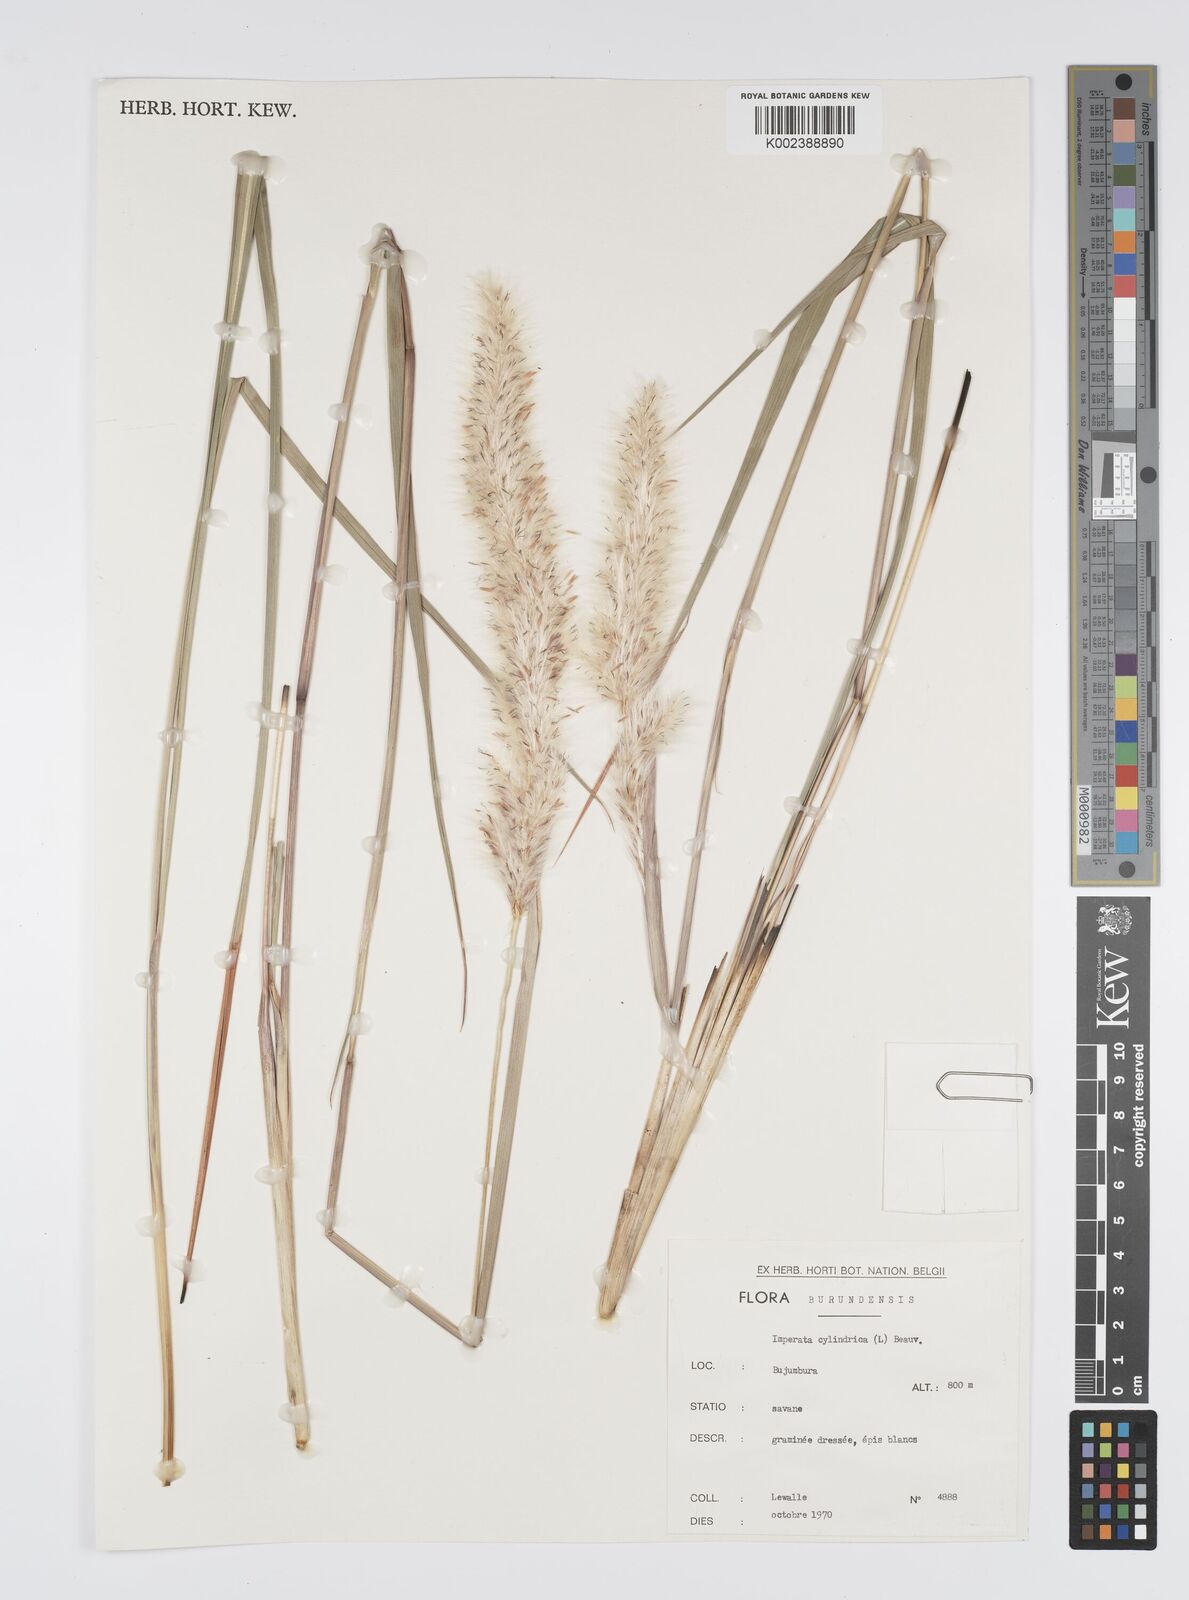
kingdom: Plantae
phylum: Tracheophyta
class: Liliopsida
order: Poales
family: Poaceae
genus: Imperata
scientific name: Imperata cylindrica
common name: Cogongrass
